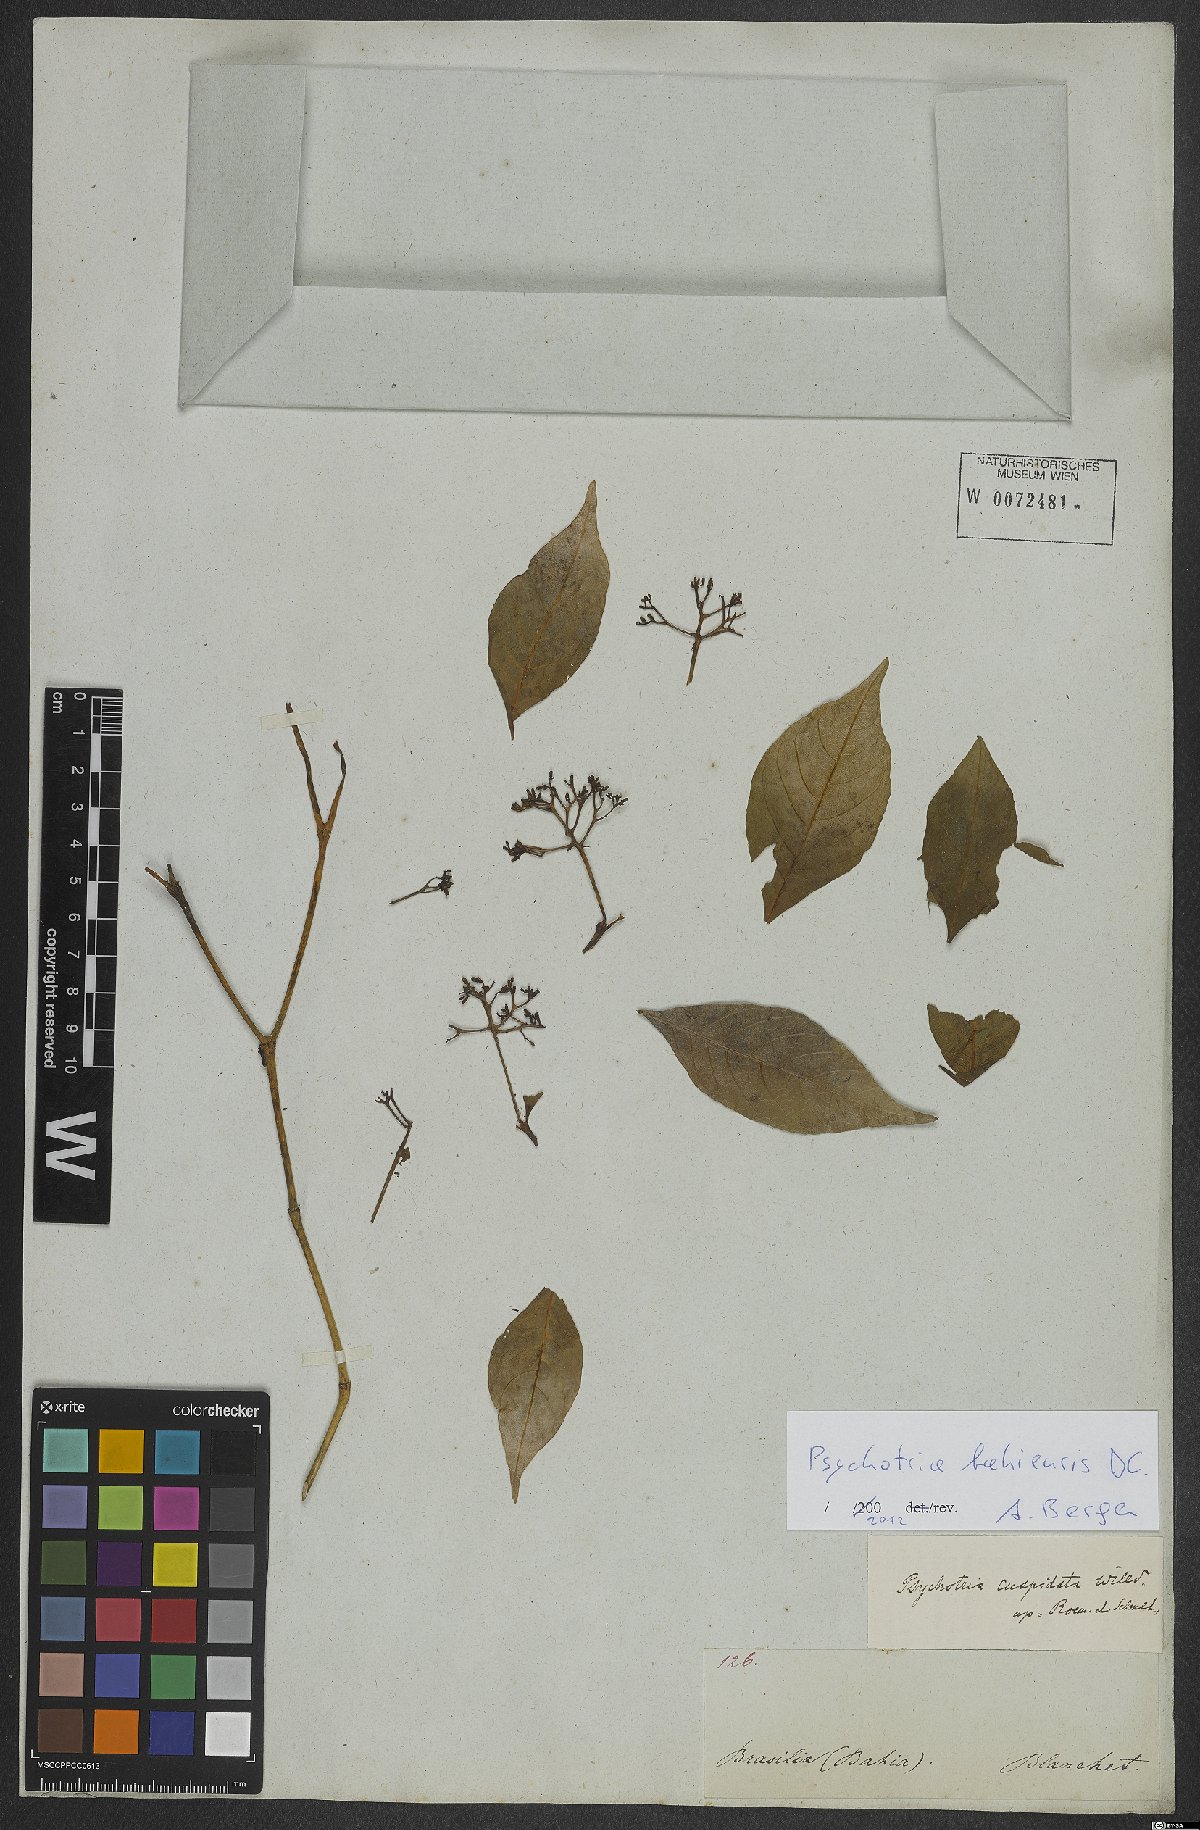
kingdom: Plantae
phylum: Tracheophyta
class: Magnoliopsida
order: Gentianales
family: Rubiaceae
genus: Psychotria
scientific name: Psychotria bahiensis
